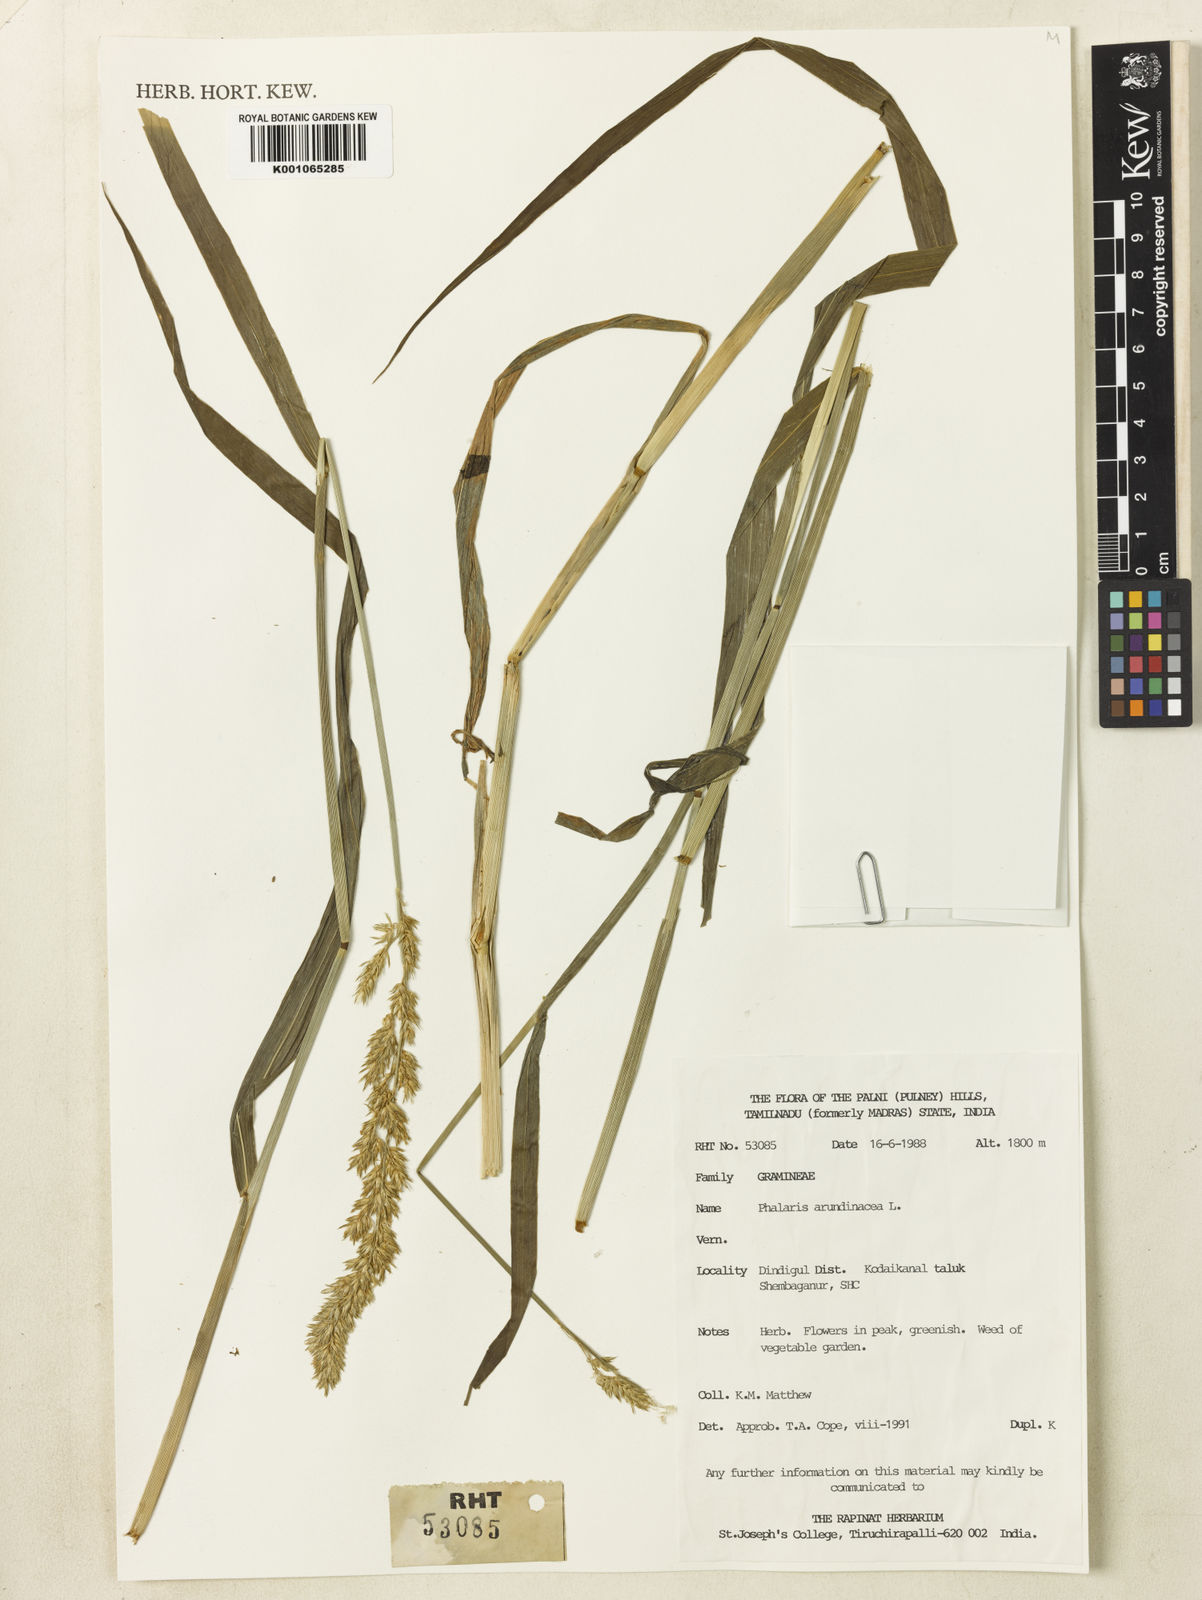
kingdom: Plantae
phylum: Tracheophyta
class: Liliopsida
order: Poales
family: Poaceae
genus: Phalaris
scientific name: Phalaris arundinacea
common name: Reed canary-grass
